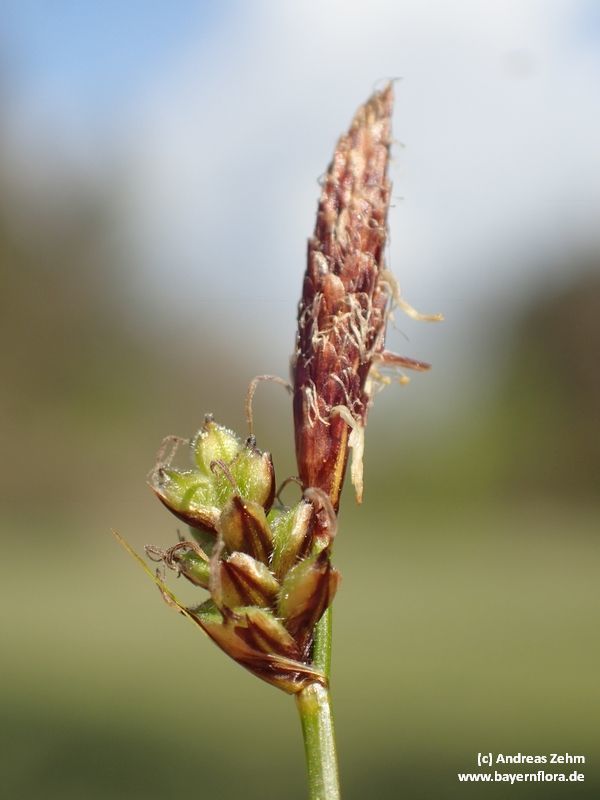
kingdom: Plantae
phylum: Tracheophyta
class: Liliopsida
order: Poales
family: Cyperaceae
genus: Carex
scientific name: Carex montana
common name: Soft-leaved sedge
